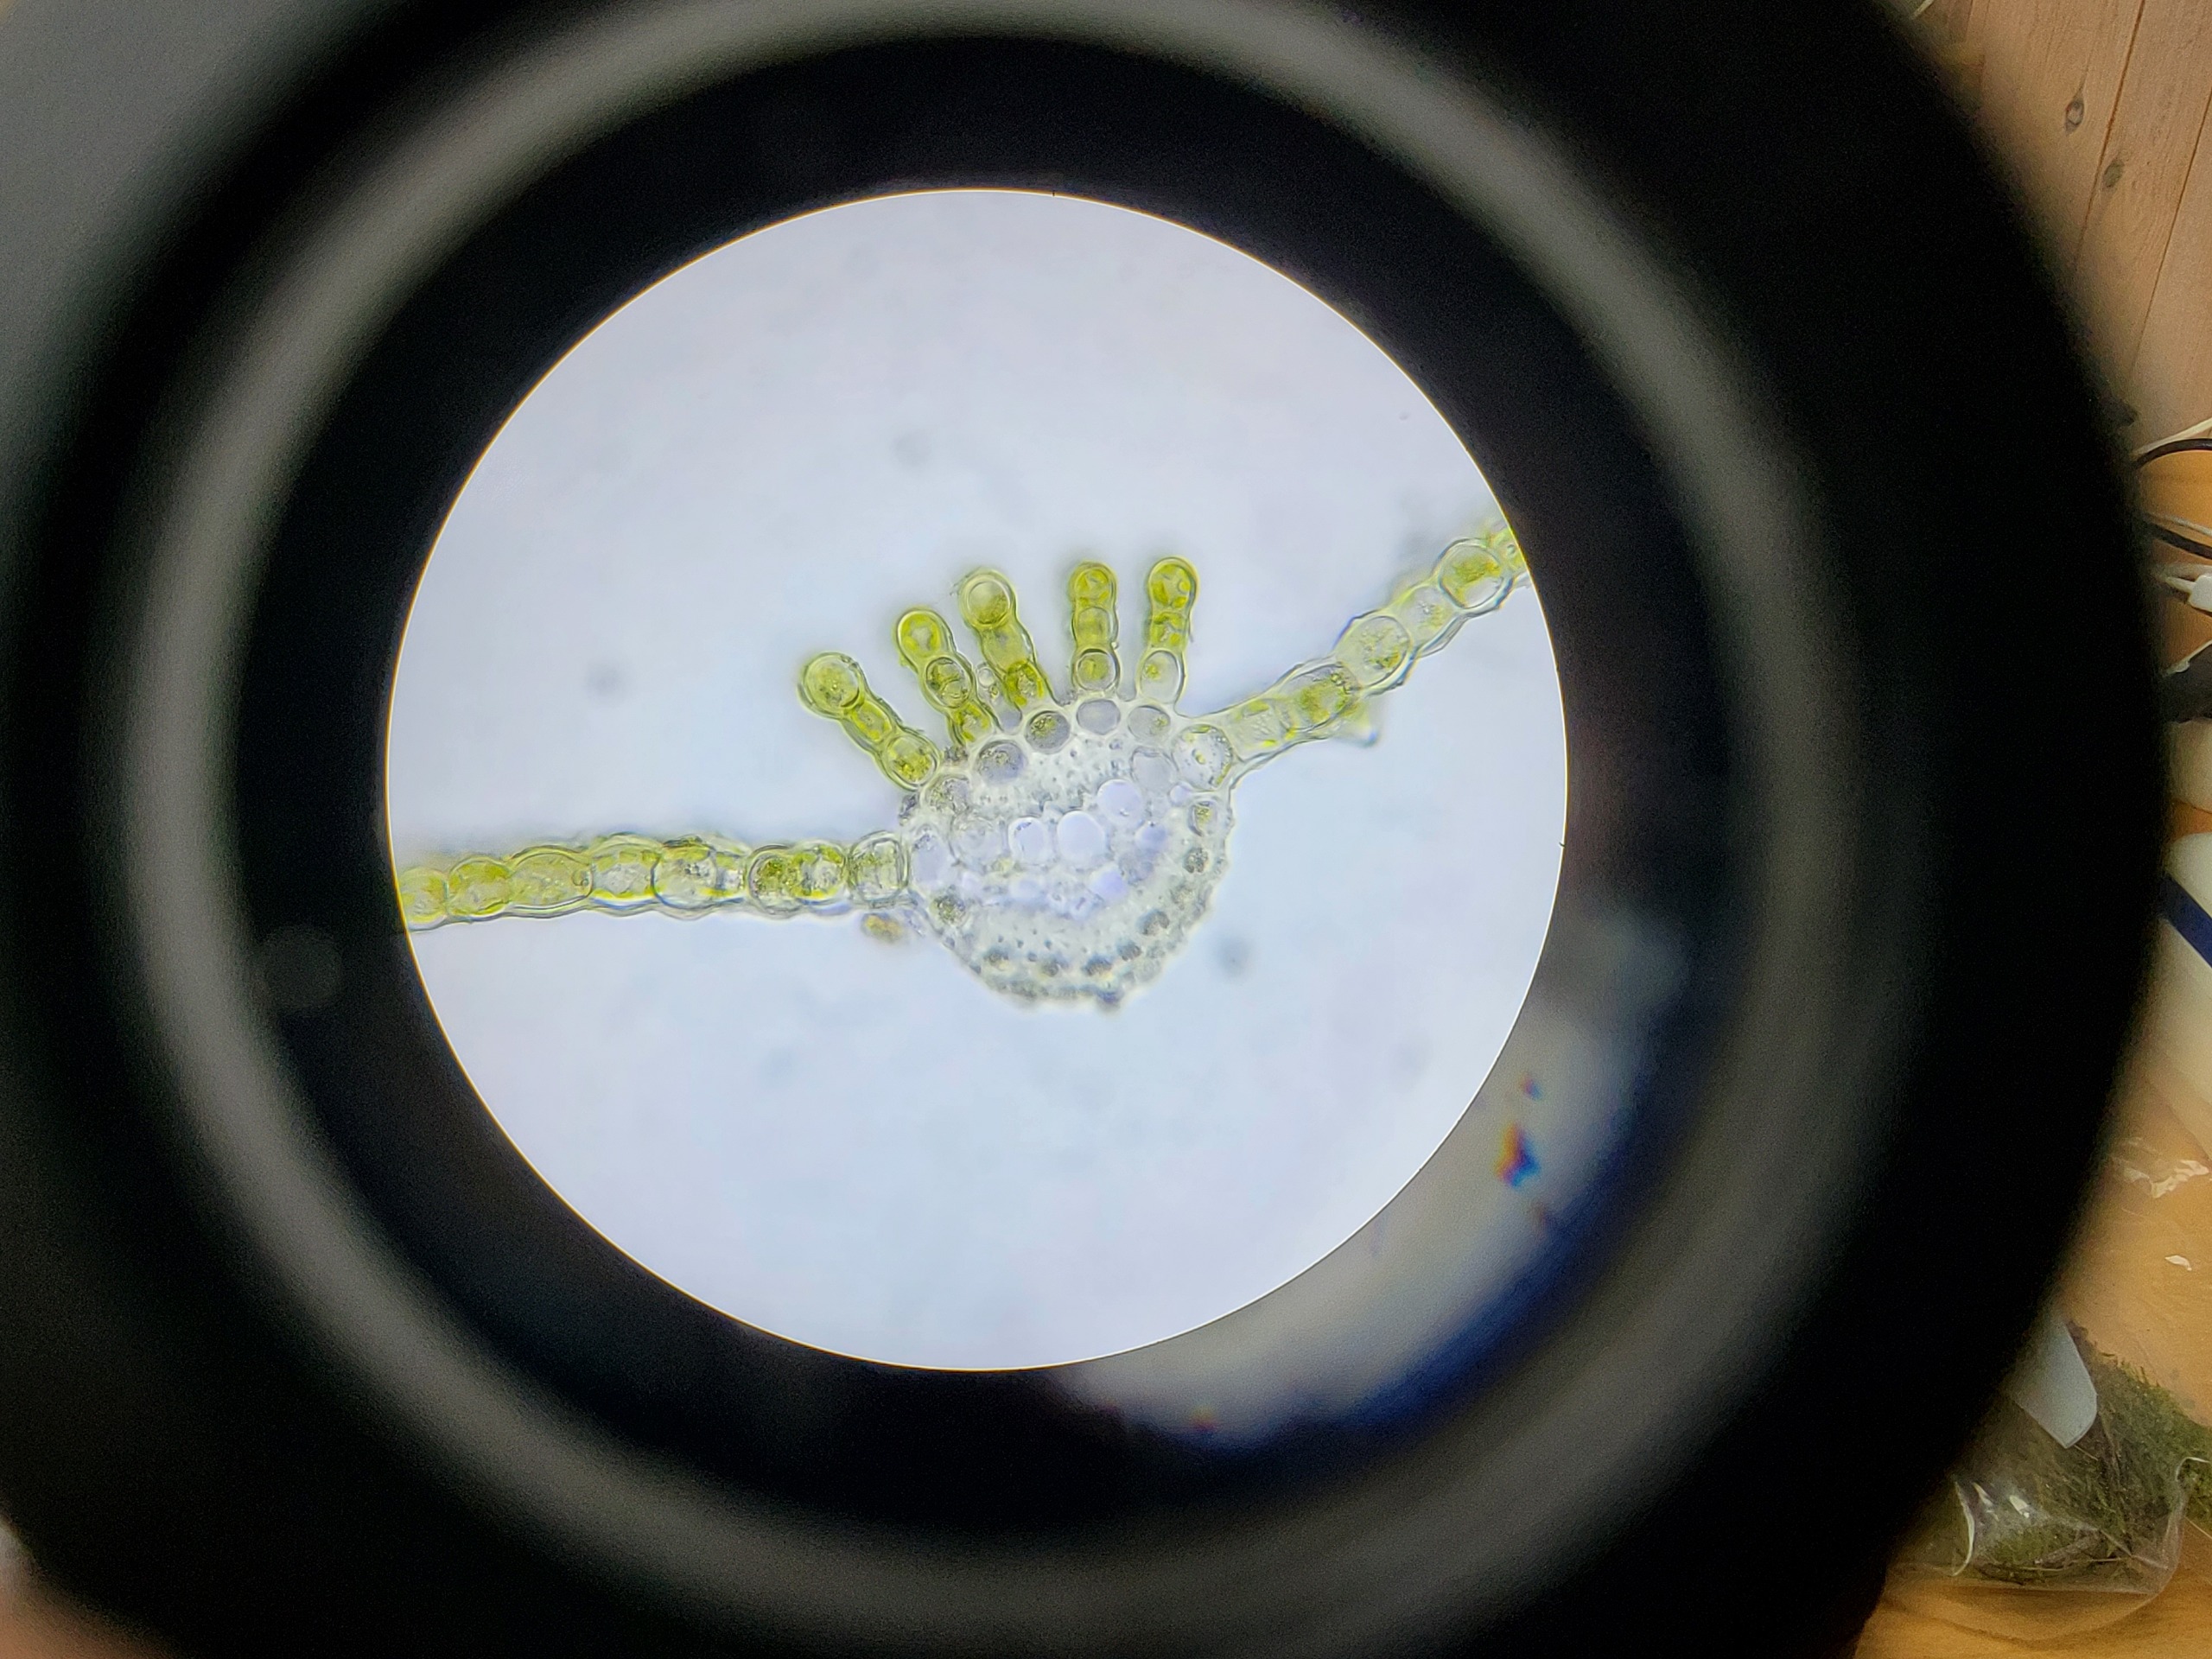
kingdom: Plantae
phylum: Bryophyta
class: Polytrichopsida
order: Polytrichales
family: Polytrichaceae
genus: Atrichum
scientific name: Atrichum undulatum
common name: Bølget katrinemos
